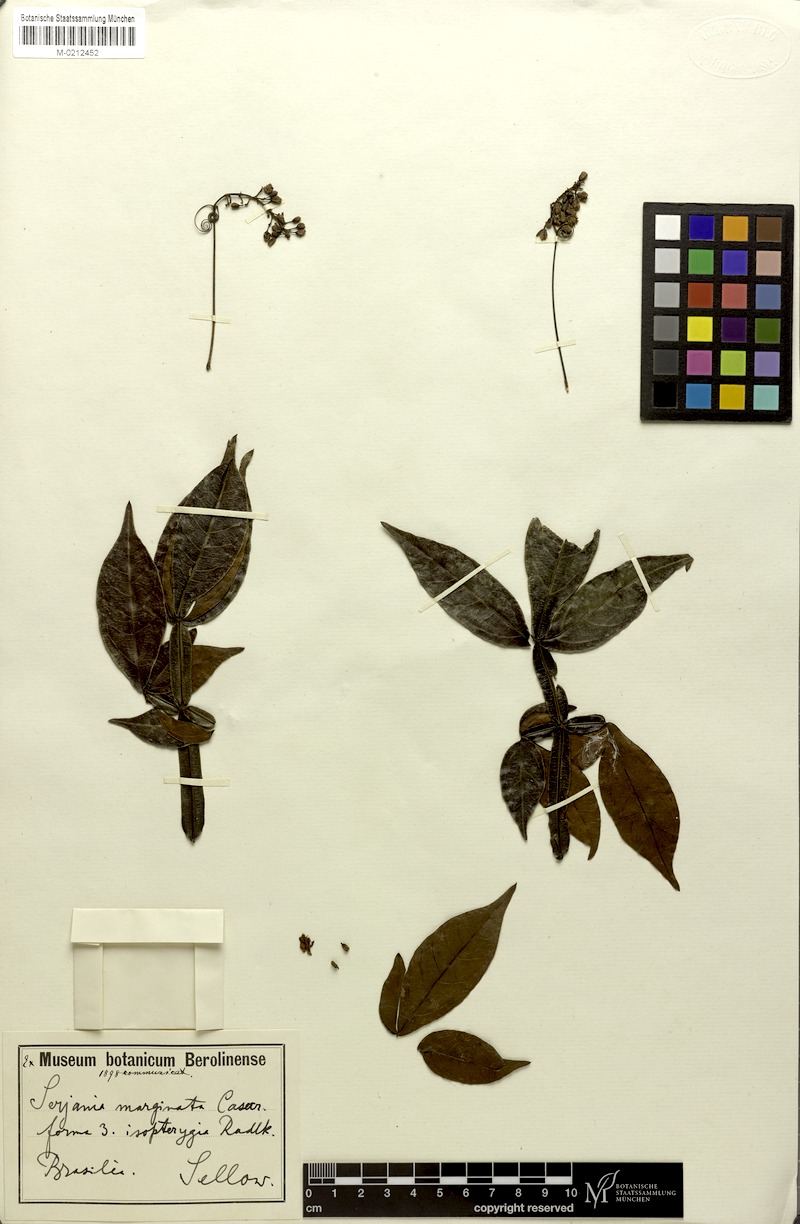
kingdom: Plantae
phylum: Tracheophyta
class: Magnoliopsida
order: Sapindales
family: Sapindaceae
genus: Serjania
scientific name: Serjania marginata
